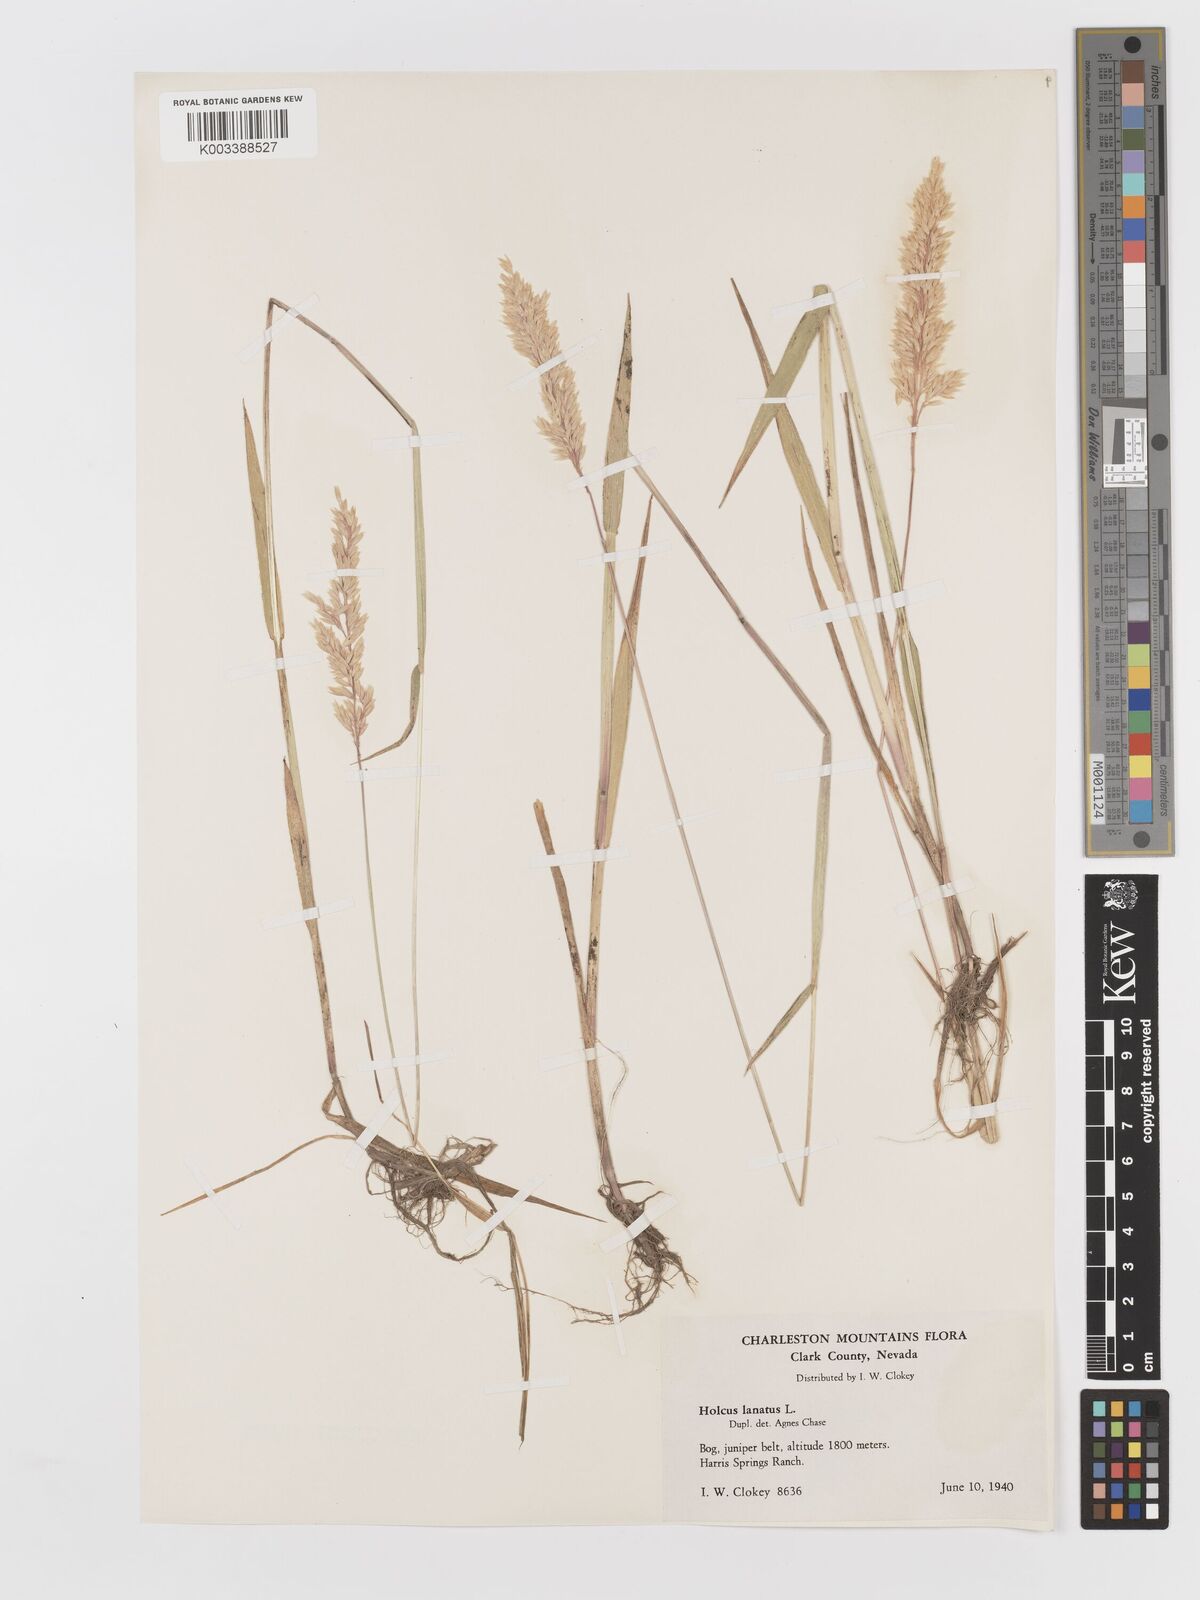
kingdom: Plantae
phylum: Tracheophyta
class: Liliopsida
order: Poales
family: Poaceae
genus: Holcus
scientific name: Holcus lanatus
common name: Yorkshire-fog
